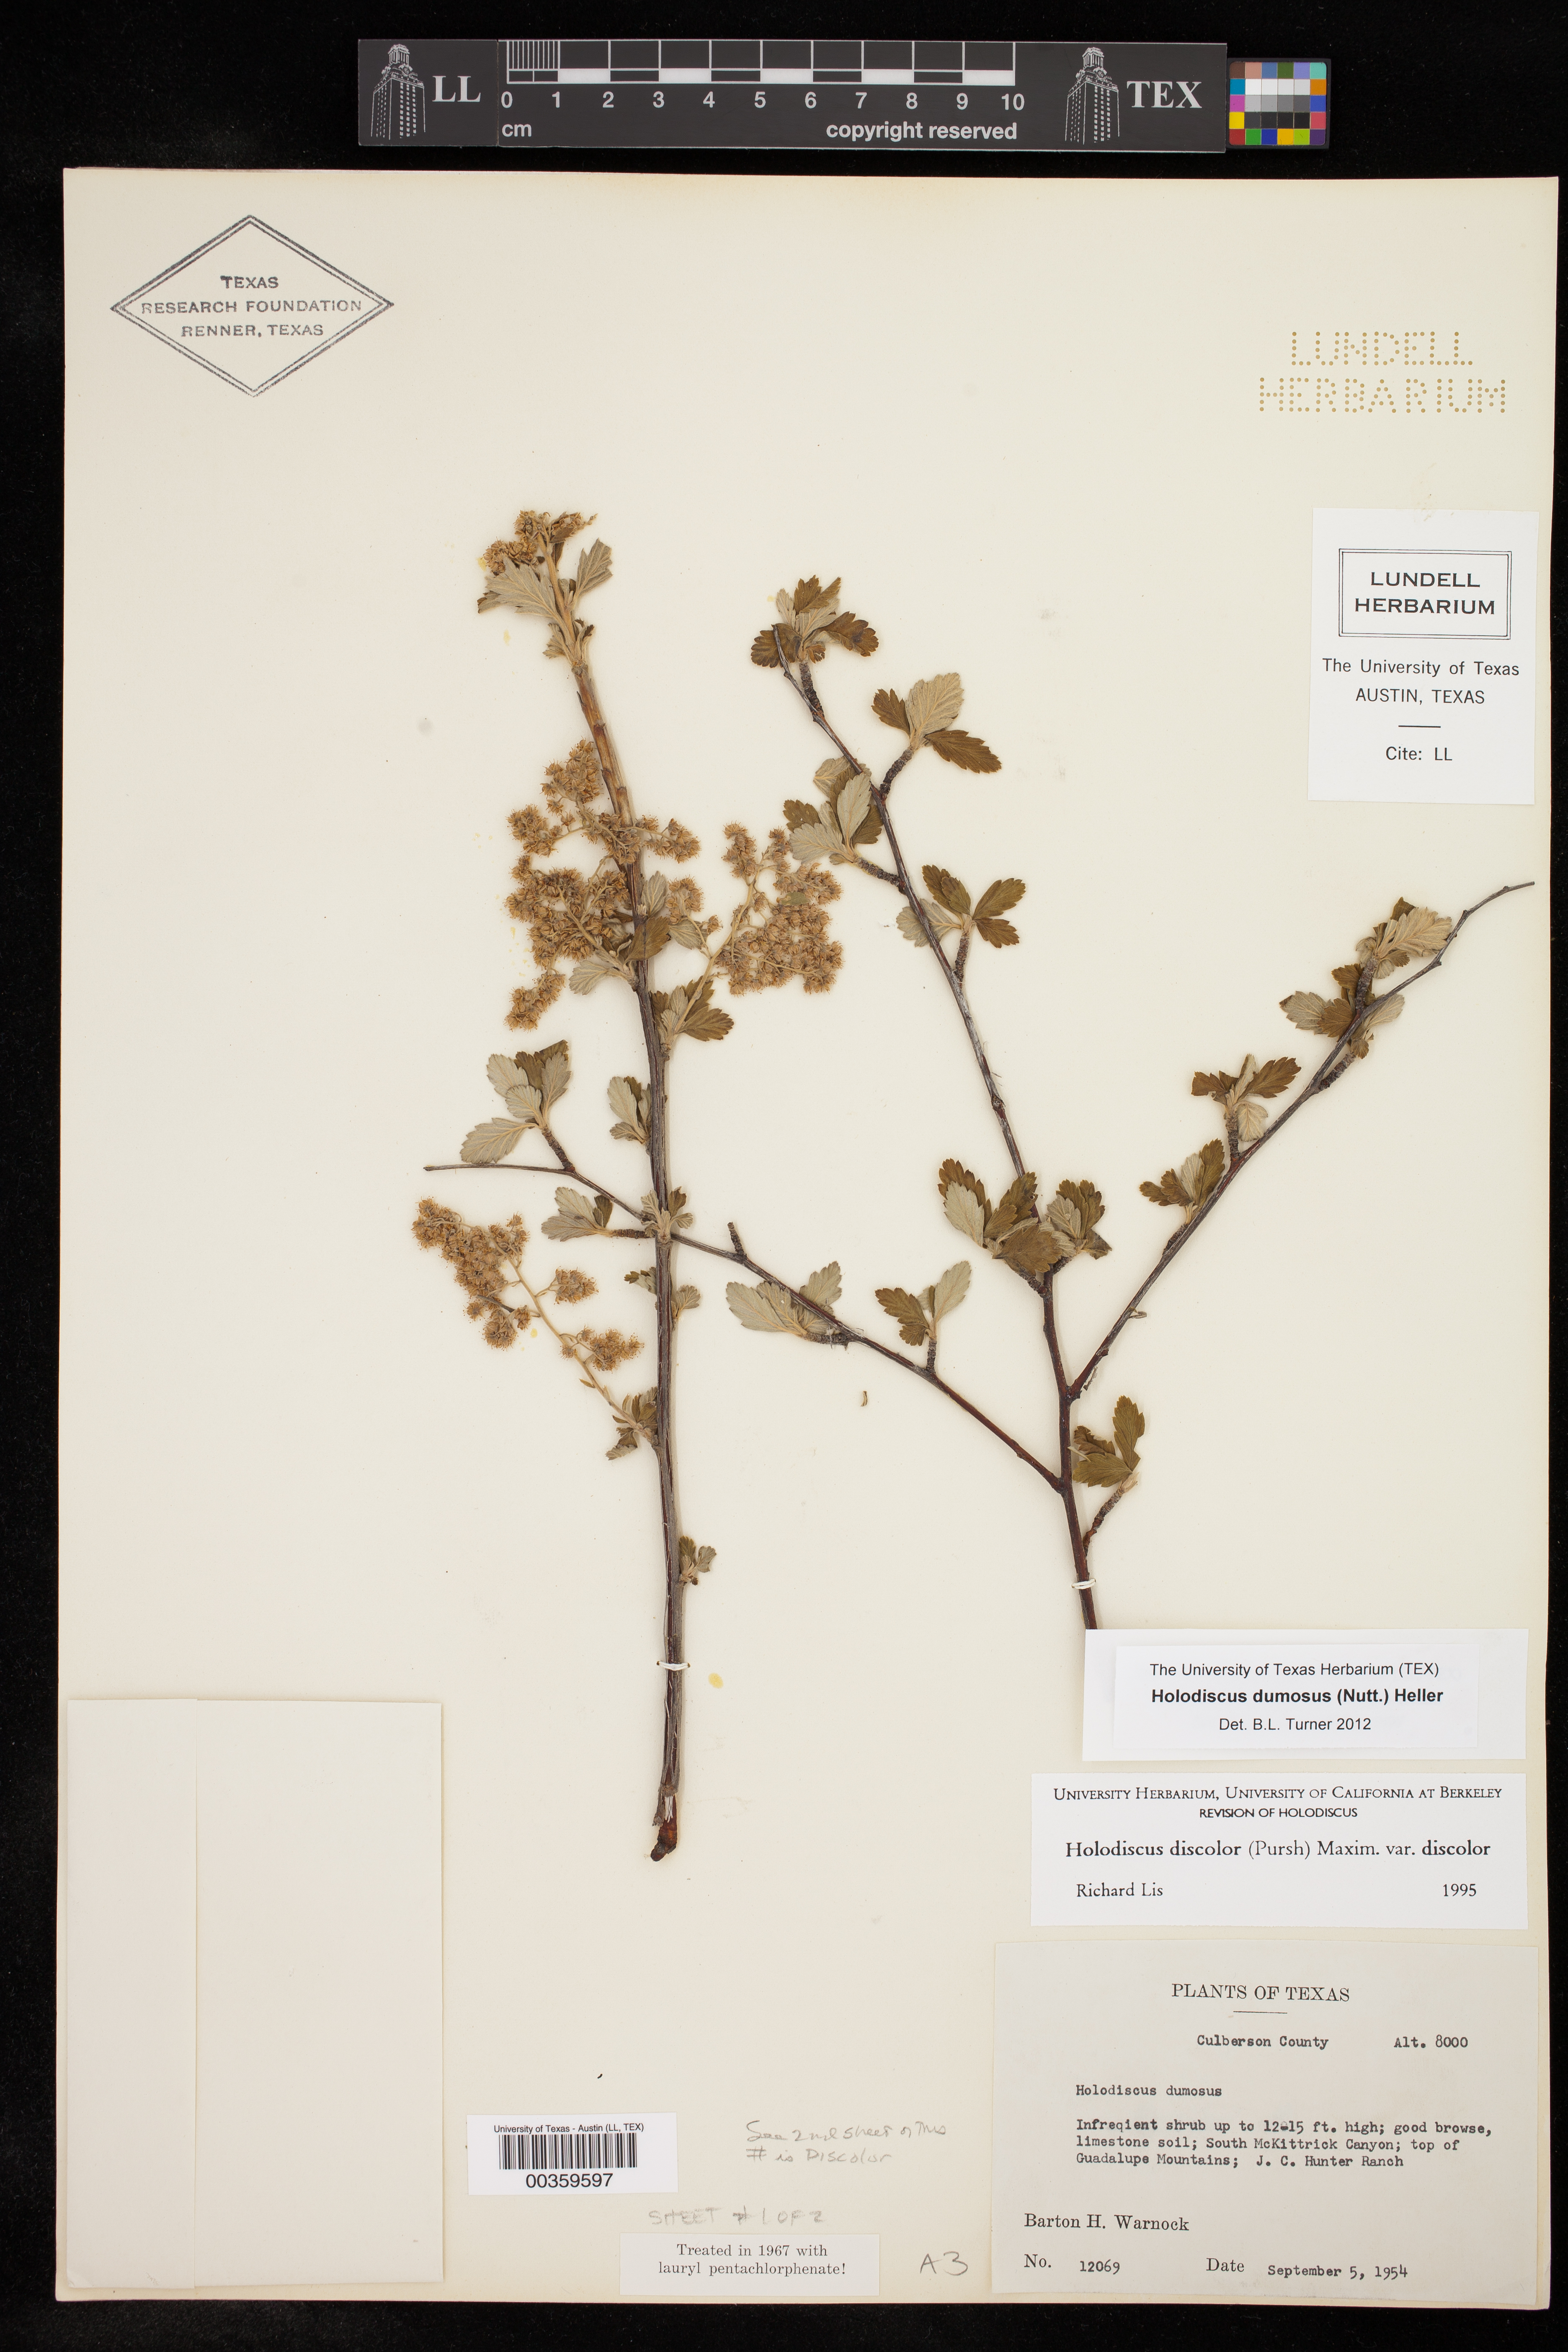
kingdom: Plantae
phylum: Tracheophyta
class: Magnoliopsida
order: Rosales
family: Rosaceae
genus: Holodiscus
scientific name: Holodiscus
